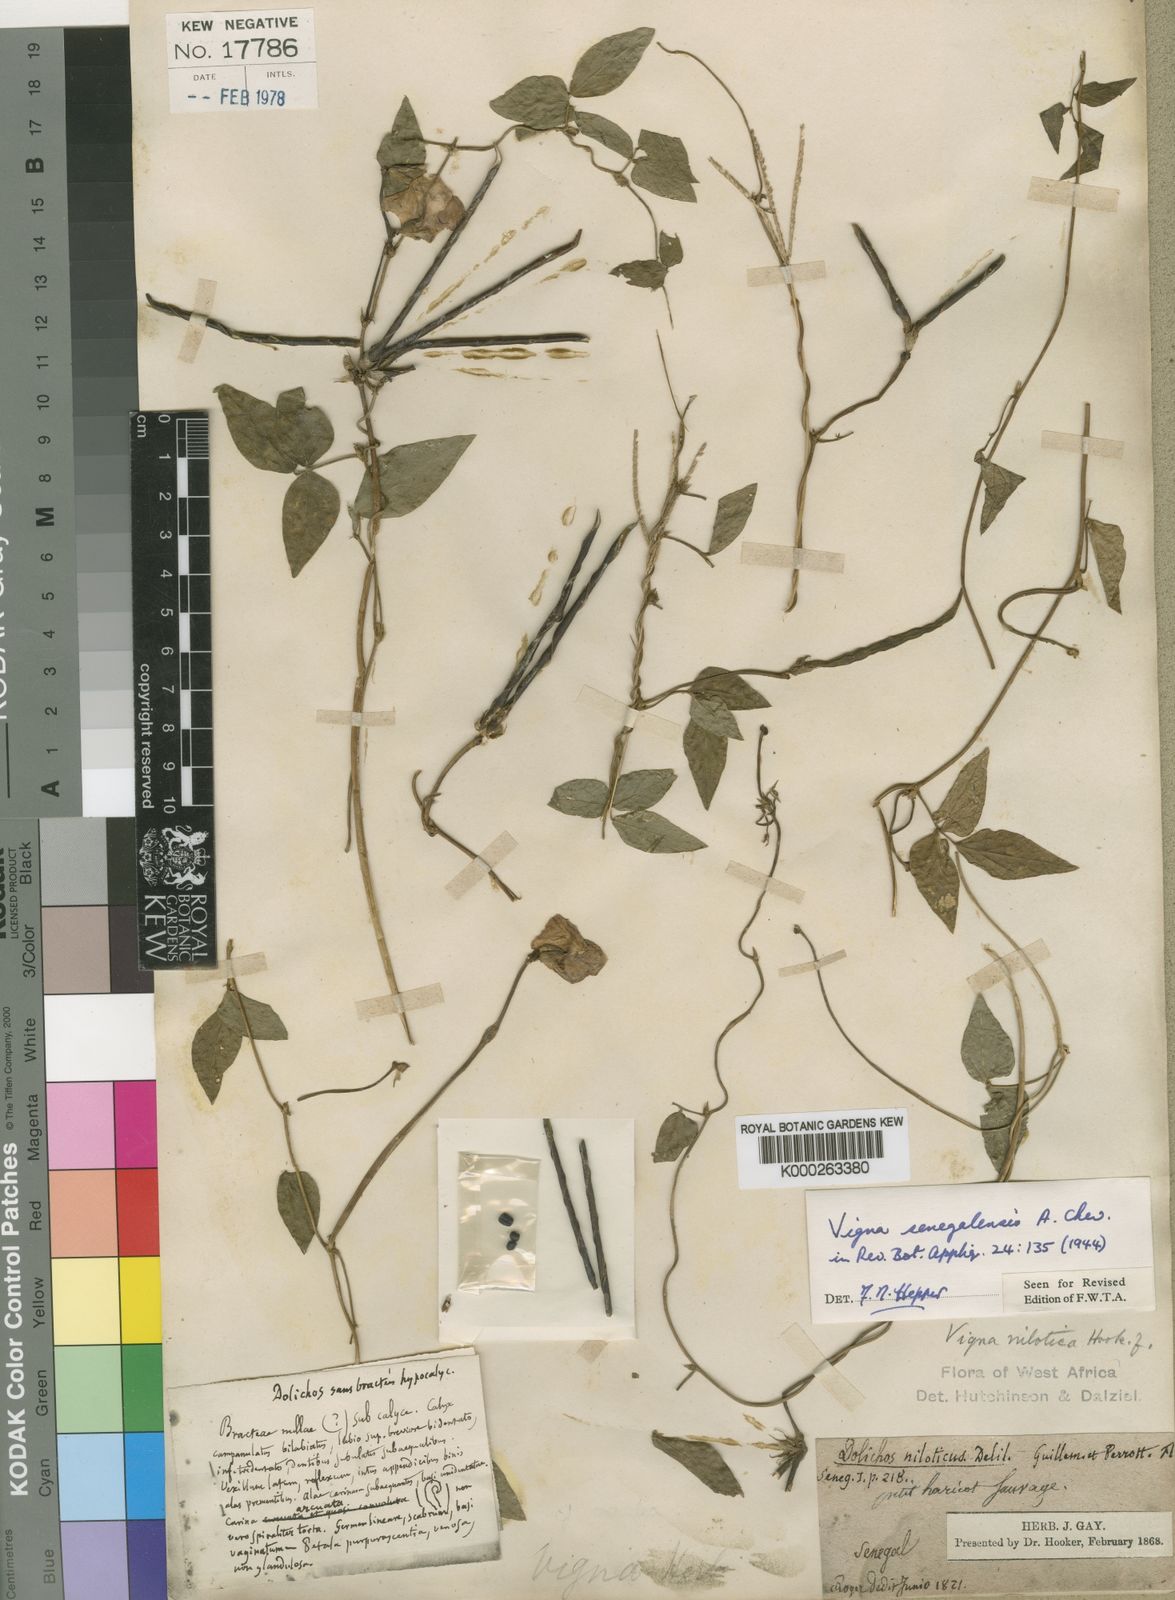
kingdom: Plantae
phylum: Tracheophyta
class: Magnoliopsida
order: Fabales
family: Fabaceae
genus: Vigna
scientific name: Vigna vexillata
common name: Zombi pea
